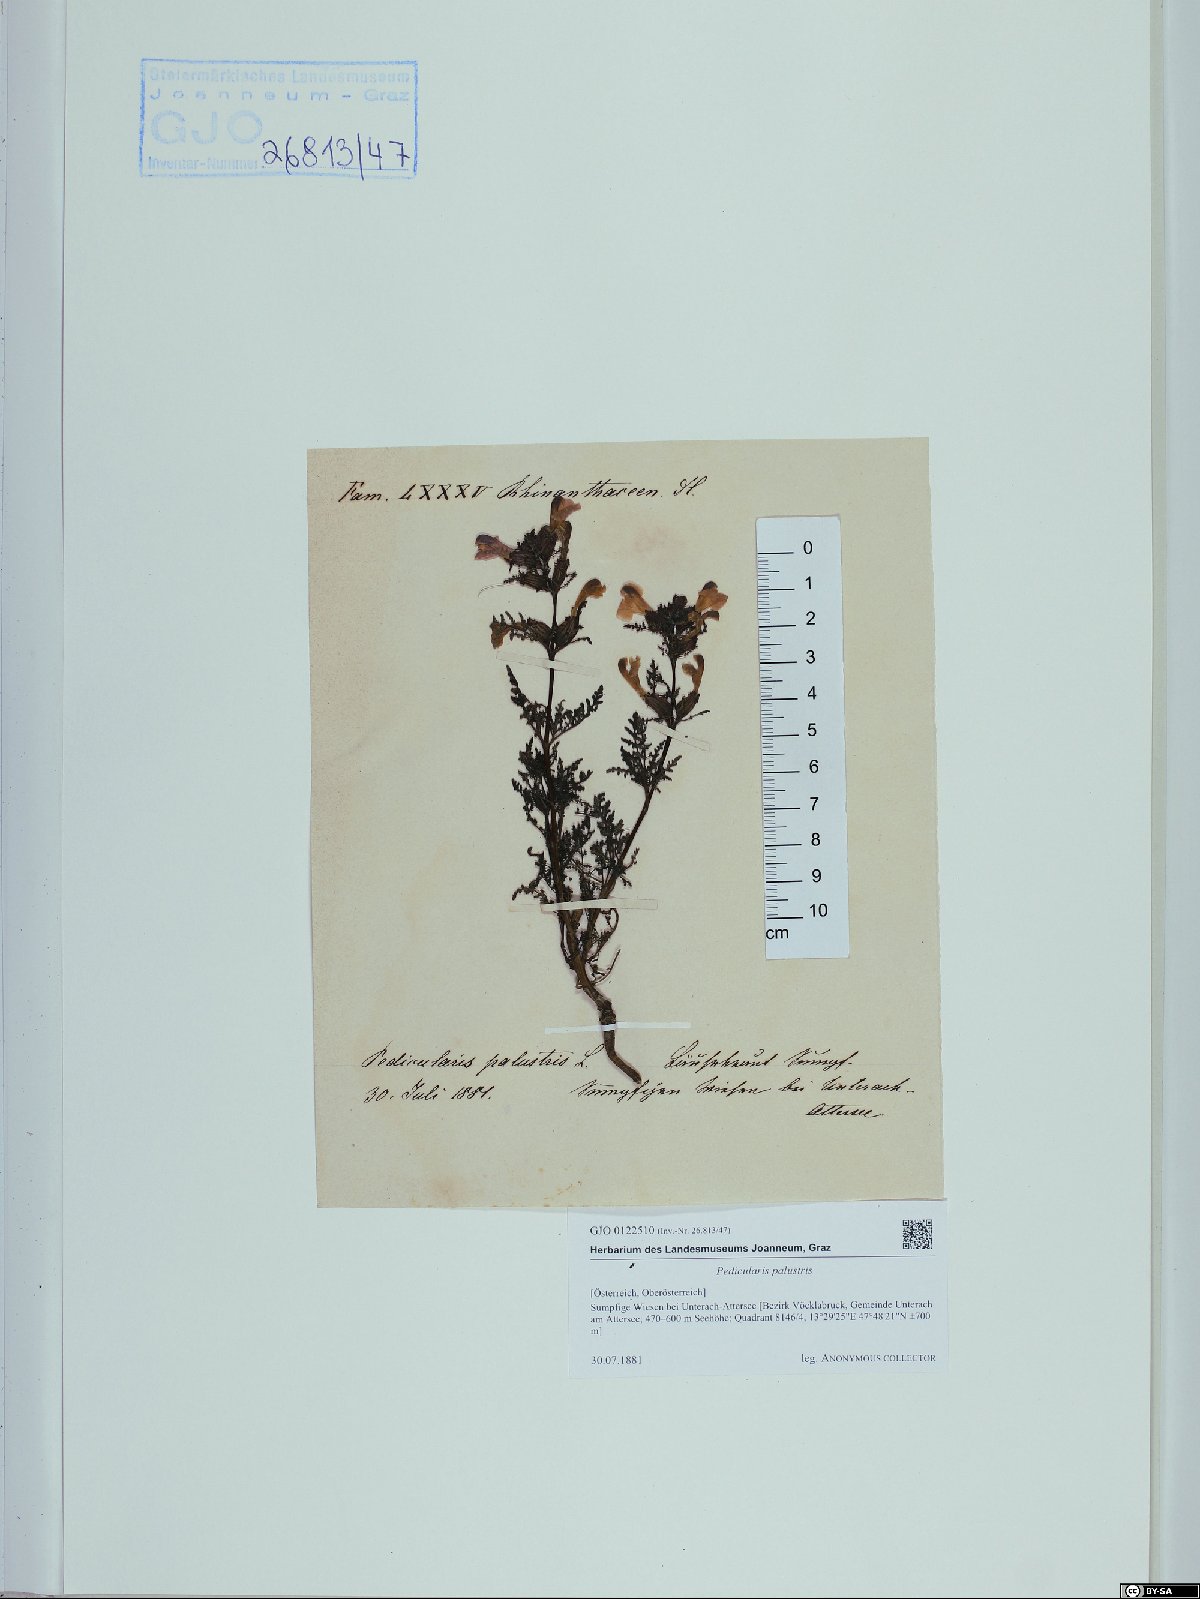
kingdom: Plantae
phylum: Tracheophyta
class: Magnoliopsida
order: Lamiales
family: Orobanchaceae
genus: Pedicularis
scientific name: Pedicularis palustris
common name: Marsh lousewort
